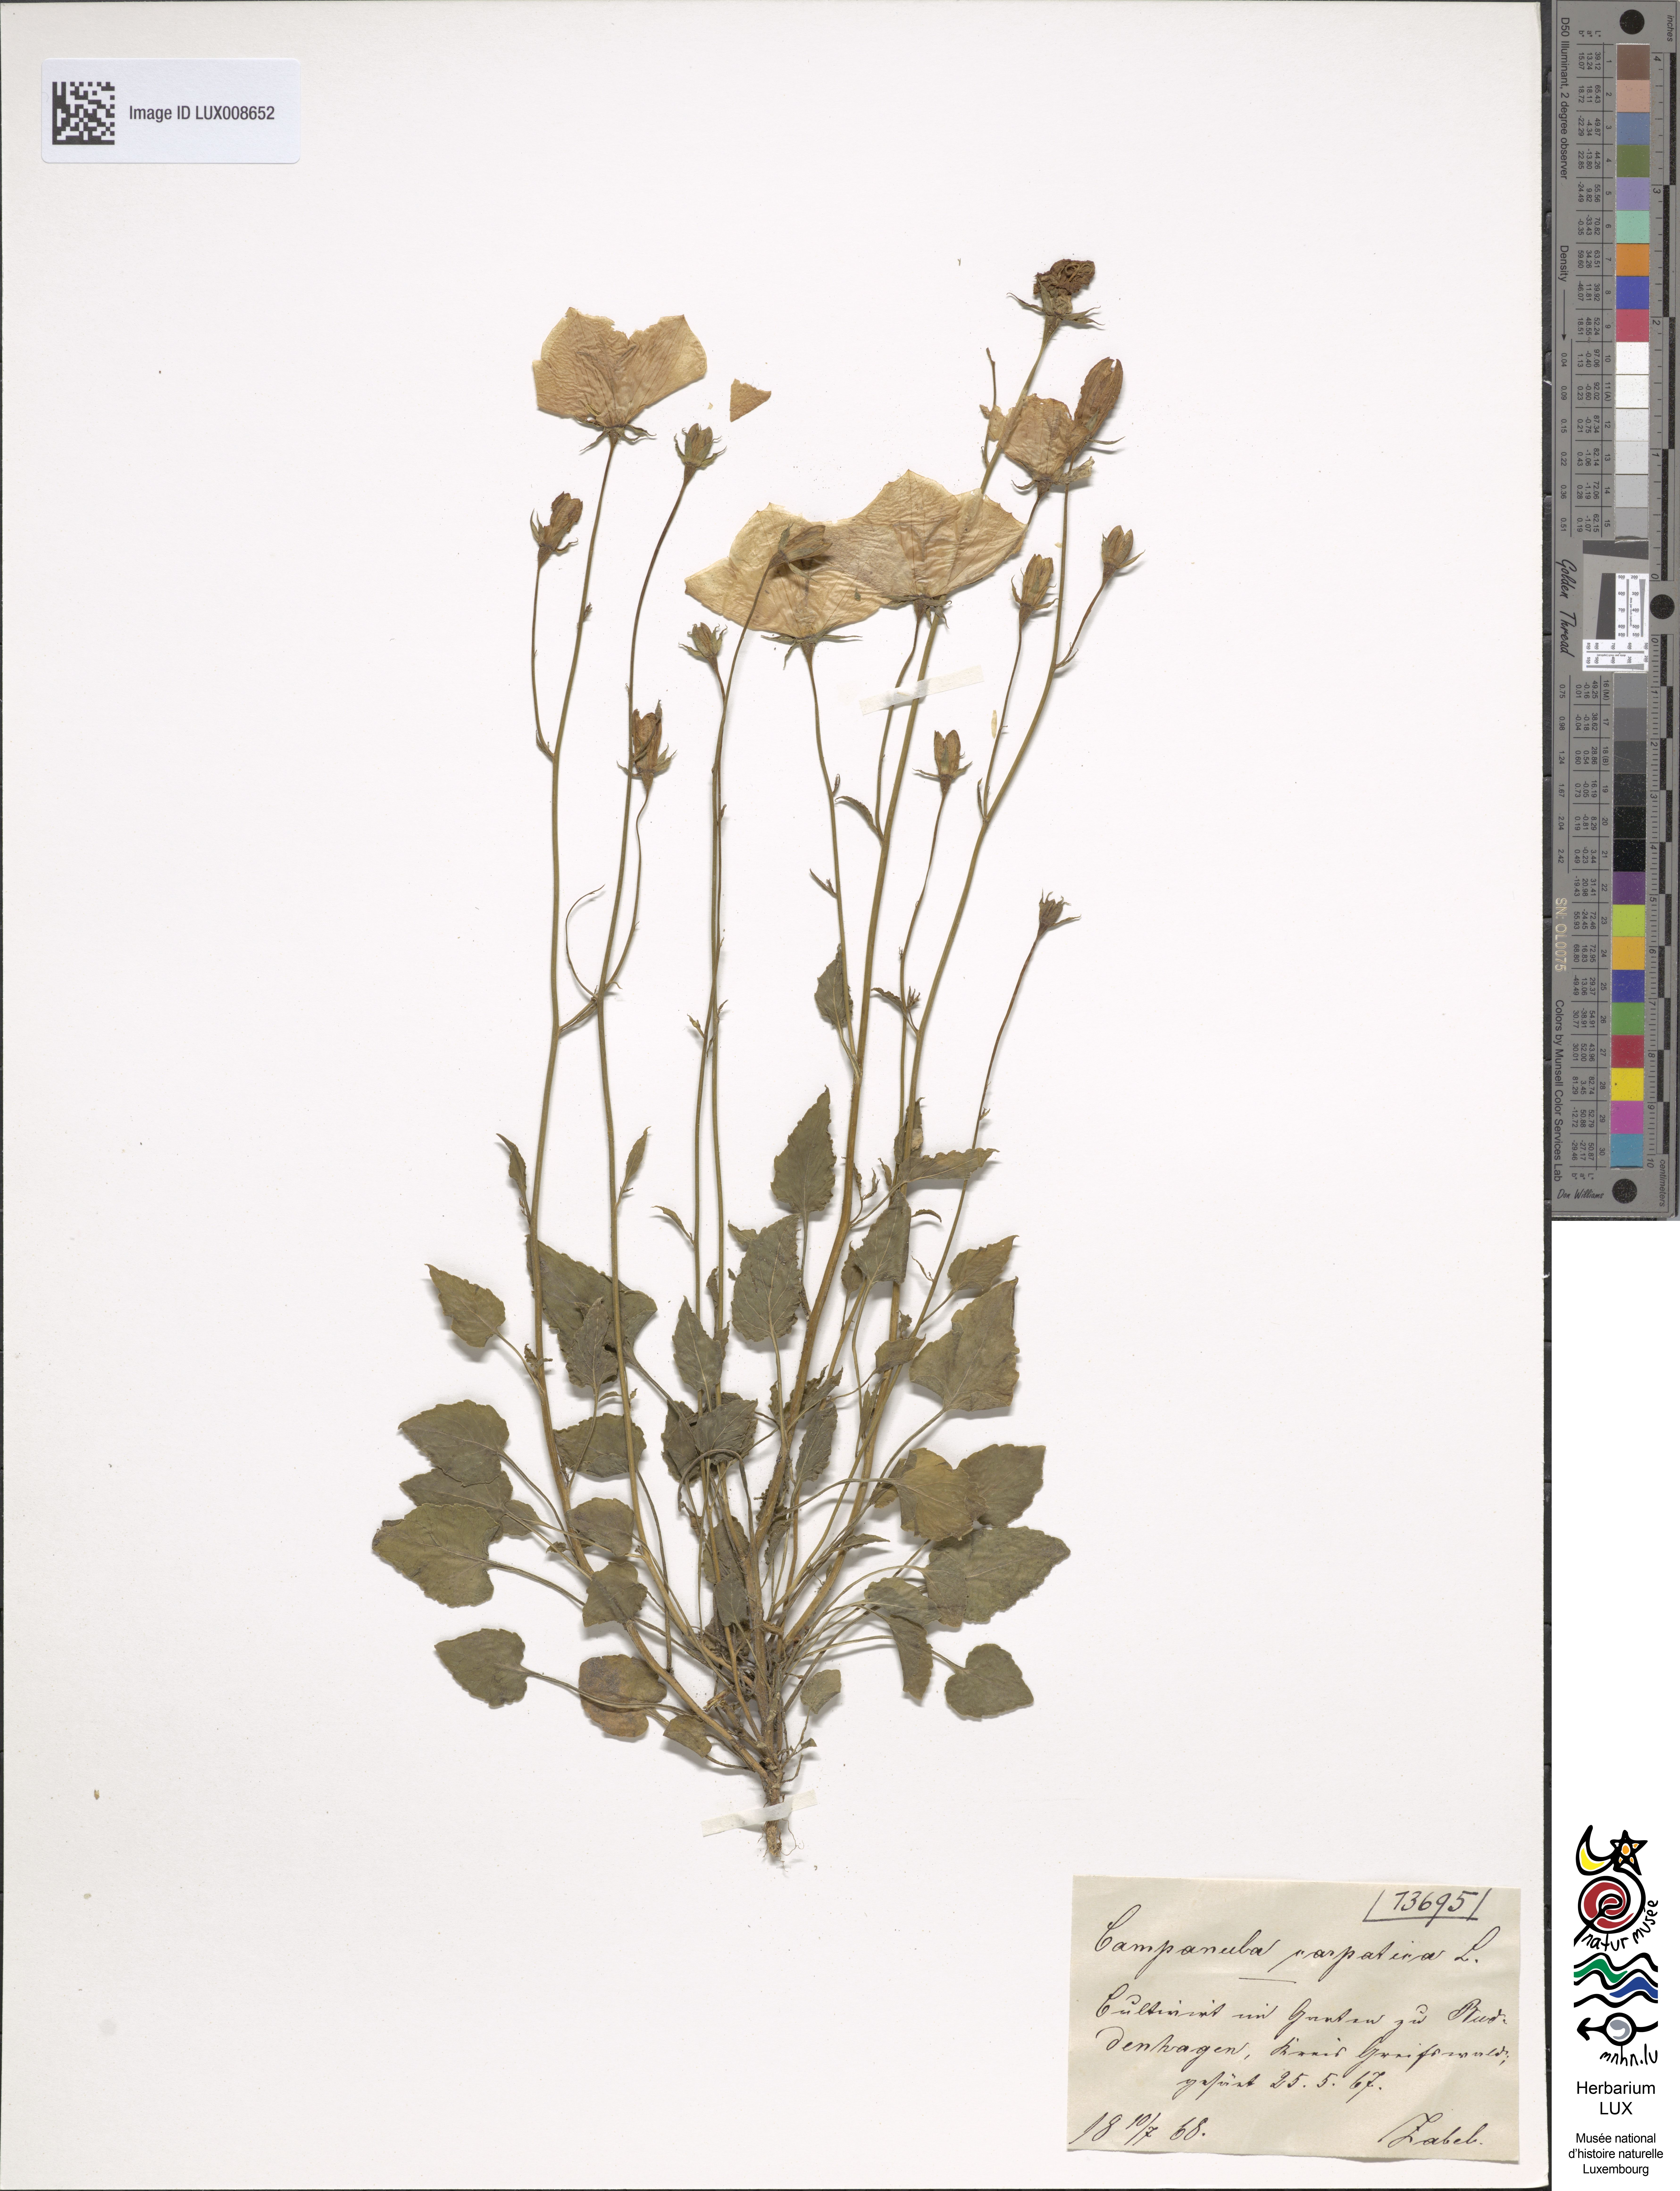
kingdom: Plantae
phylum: Tracheophyta
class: Magnoliopsida
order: Asterales
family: Campanulaceae
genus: Campanula
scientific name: Campanula carpatica
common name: Tussock bellflower
